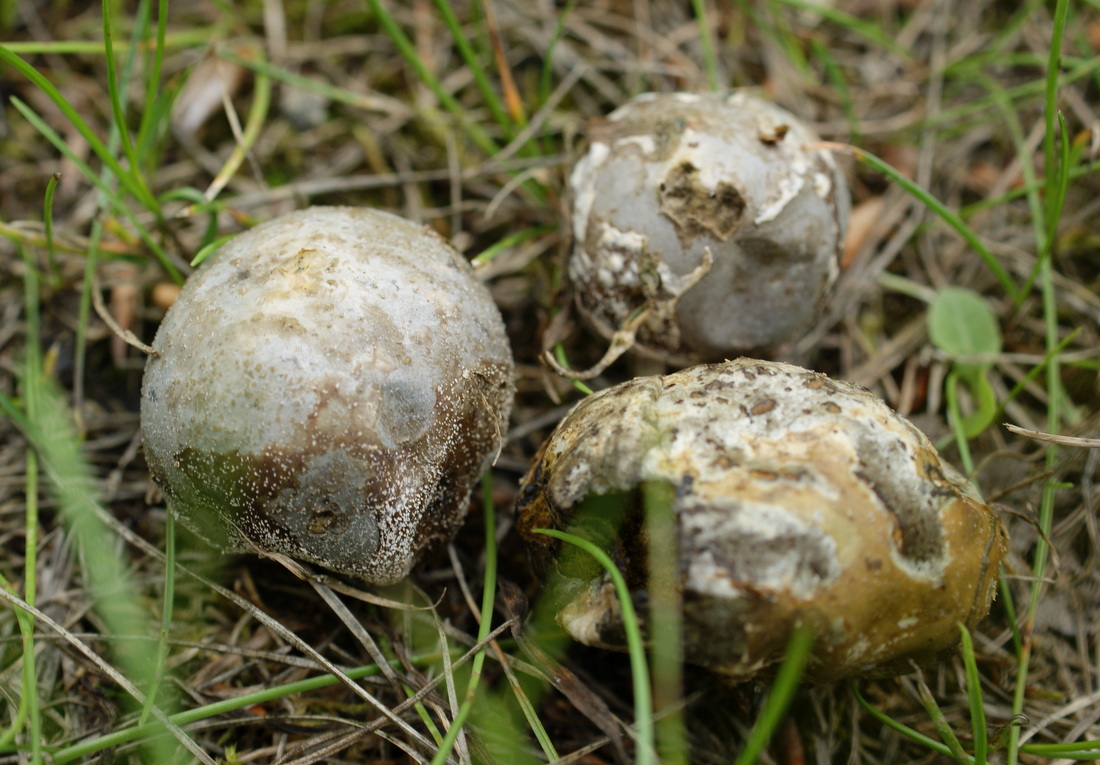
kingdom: Fungi
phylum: Basidiomycota
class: Agaricomycetes
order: Agaricales
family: Lycoperdaceae
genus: Bovista
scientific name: Bovista plumbea
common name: blygrå bovist
